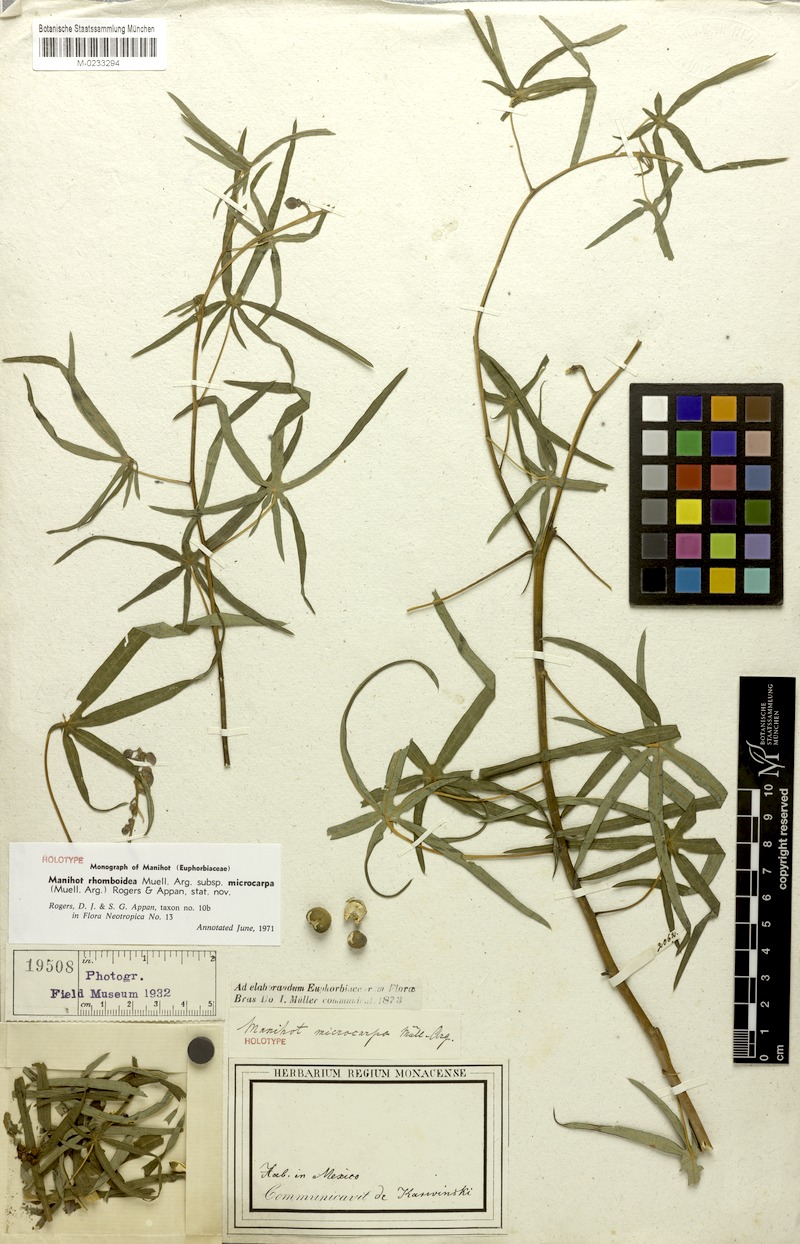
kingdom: Plantae
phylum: Tracheophyta
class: Magnoliopsida
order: Malpighiales
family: Euphorbiaceae
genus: Manihot
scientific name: Manihot rhomboidea
